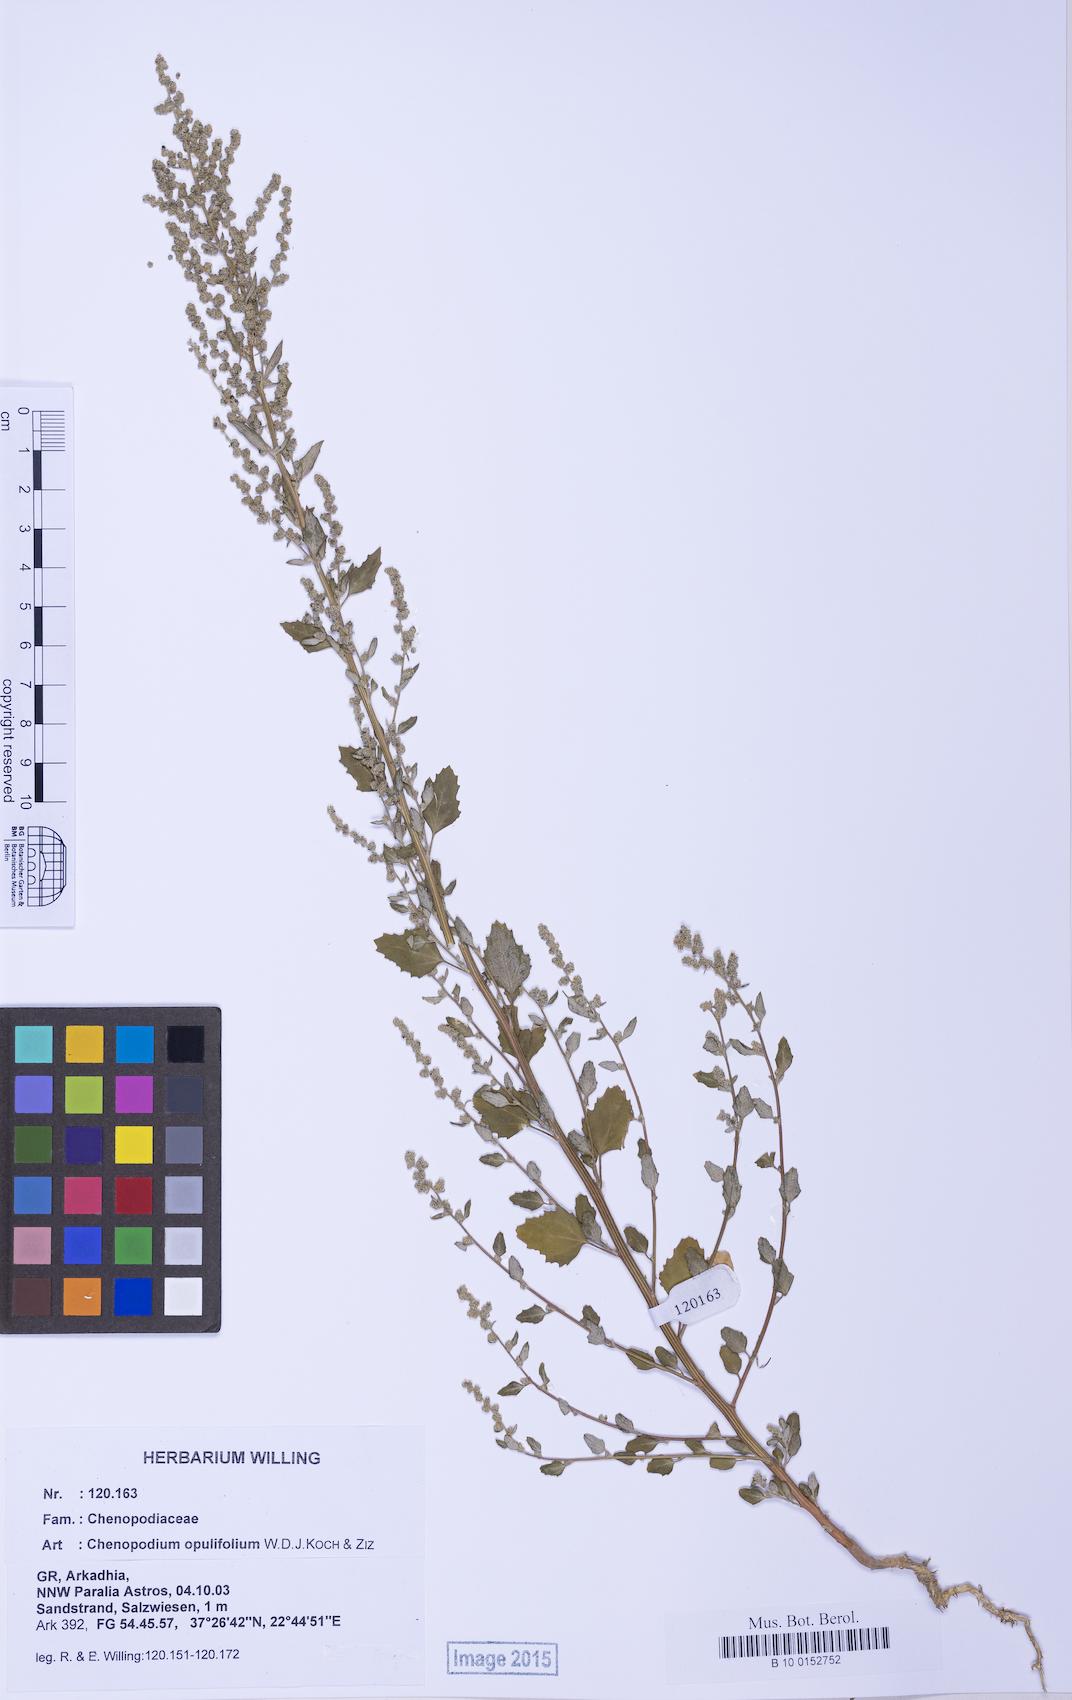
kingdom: Plantae
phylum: Tracheophyta
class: Magnoliopsida
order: Caryophyllales
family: Amaranthaceae
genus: Chenopodium
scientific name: Chenopodium album
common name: Fat-hen
